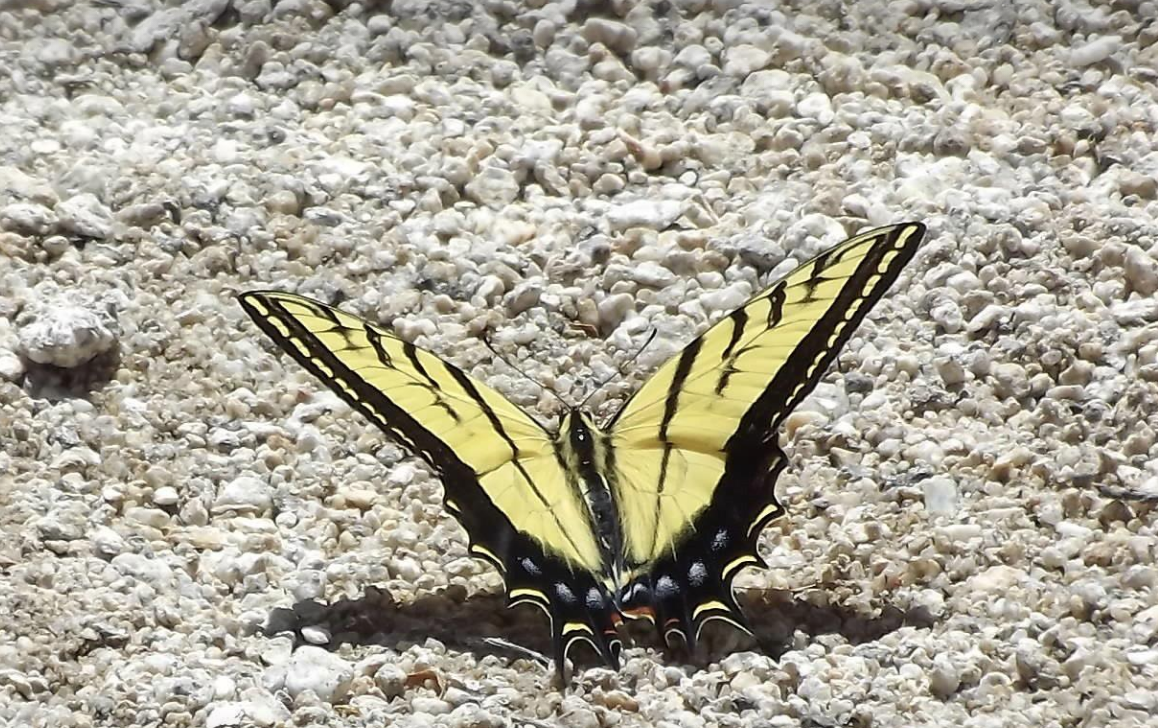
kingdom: Animalia
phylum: Arthropoda
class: Insecta
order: Lepidoptera
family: Papilionidae
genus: Papilio
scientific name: Papilio multicaudata
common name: Two-tailed Swallowtail
